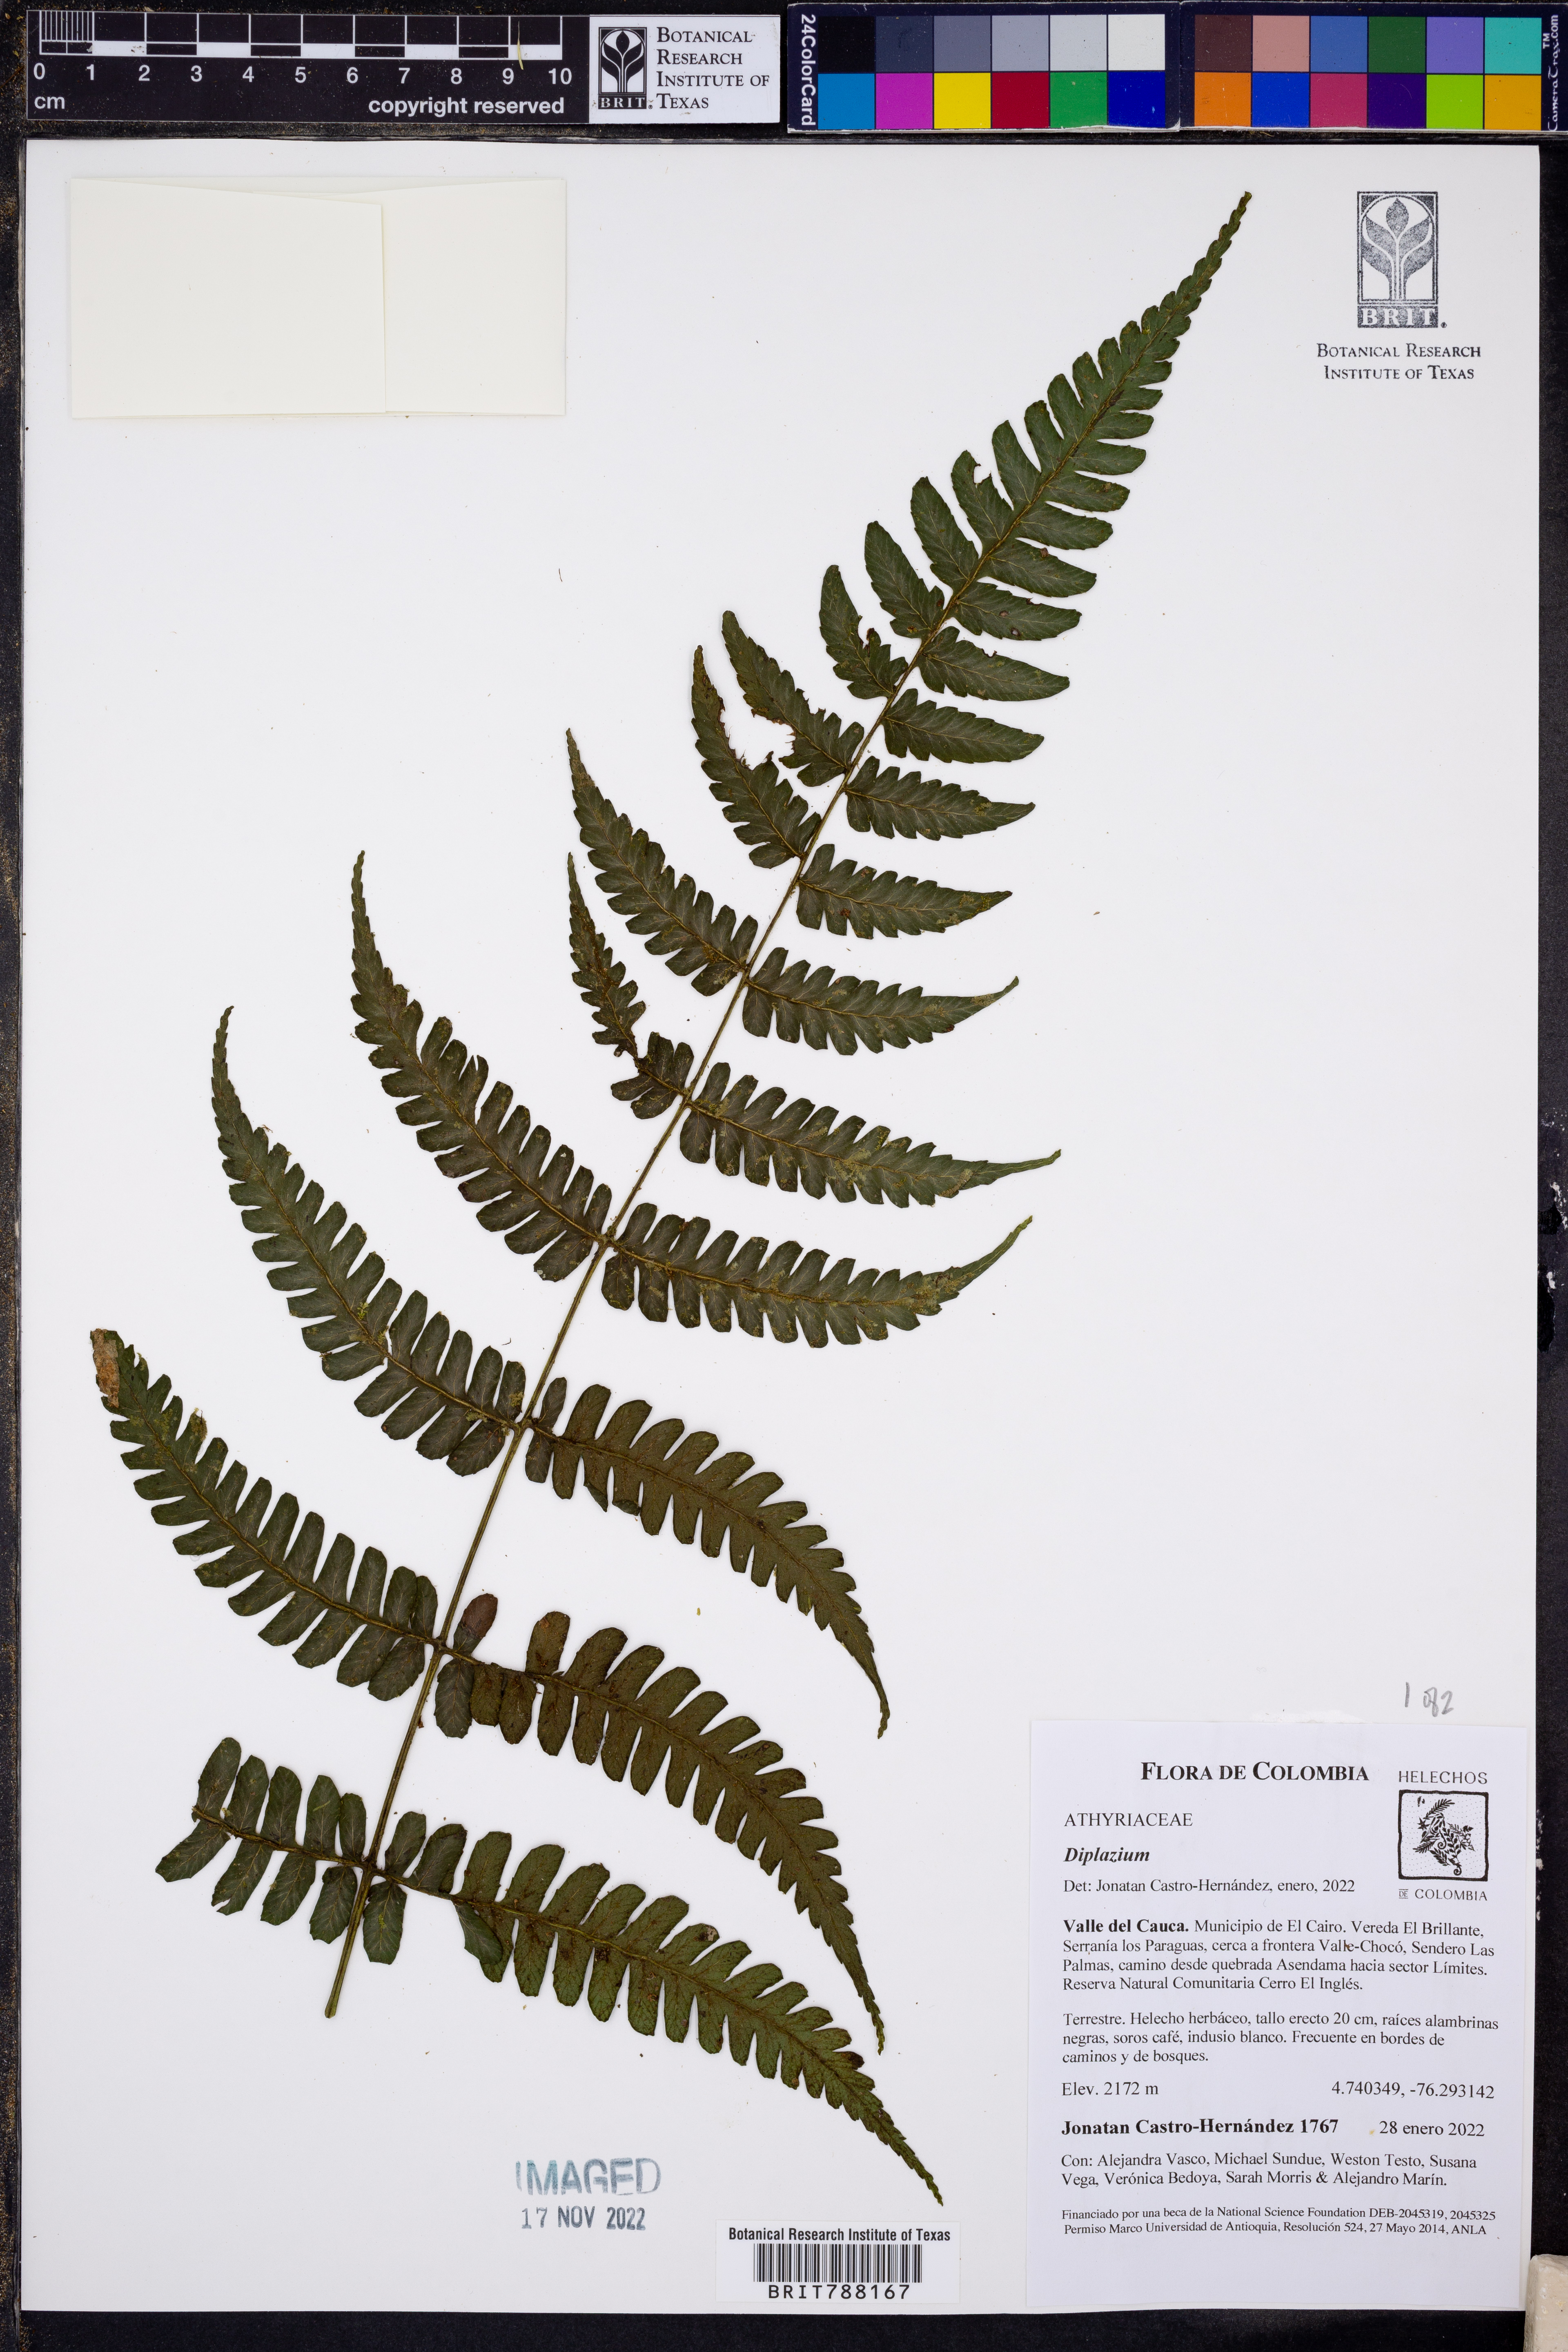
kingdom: Plantae
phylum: Tracheophyta
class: Polypodiopsida
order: Polypodiales
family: Athyriaceae
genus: Diplazium
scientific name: Diplazium
